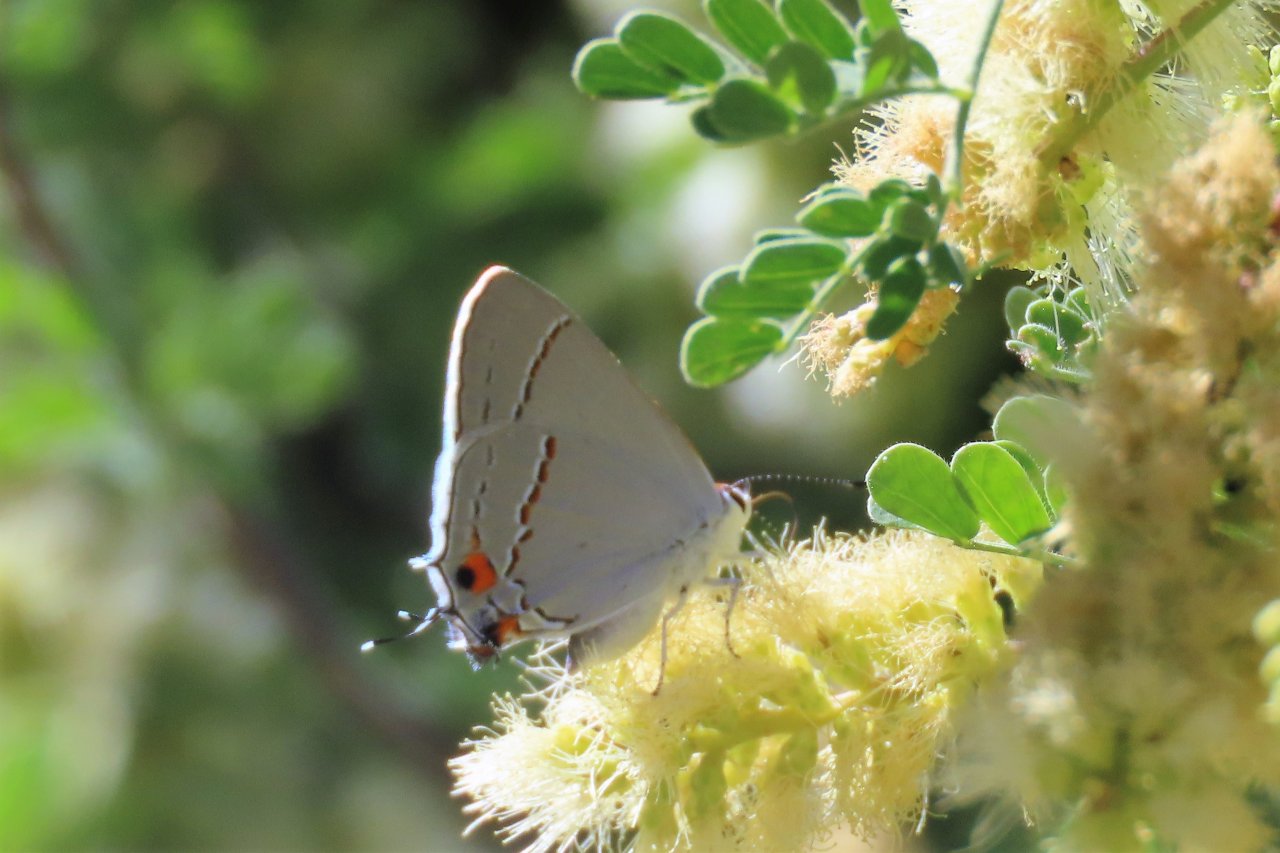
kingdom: Animalia
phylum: Arthropoda
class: Insecta
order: Lepidoptera
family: Lycaenidae
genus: Strymon
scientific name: Strymon melinus
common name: Gray Hairstreak
